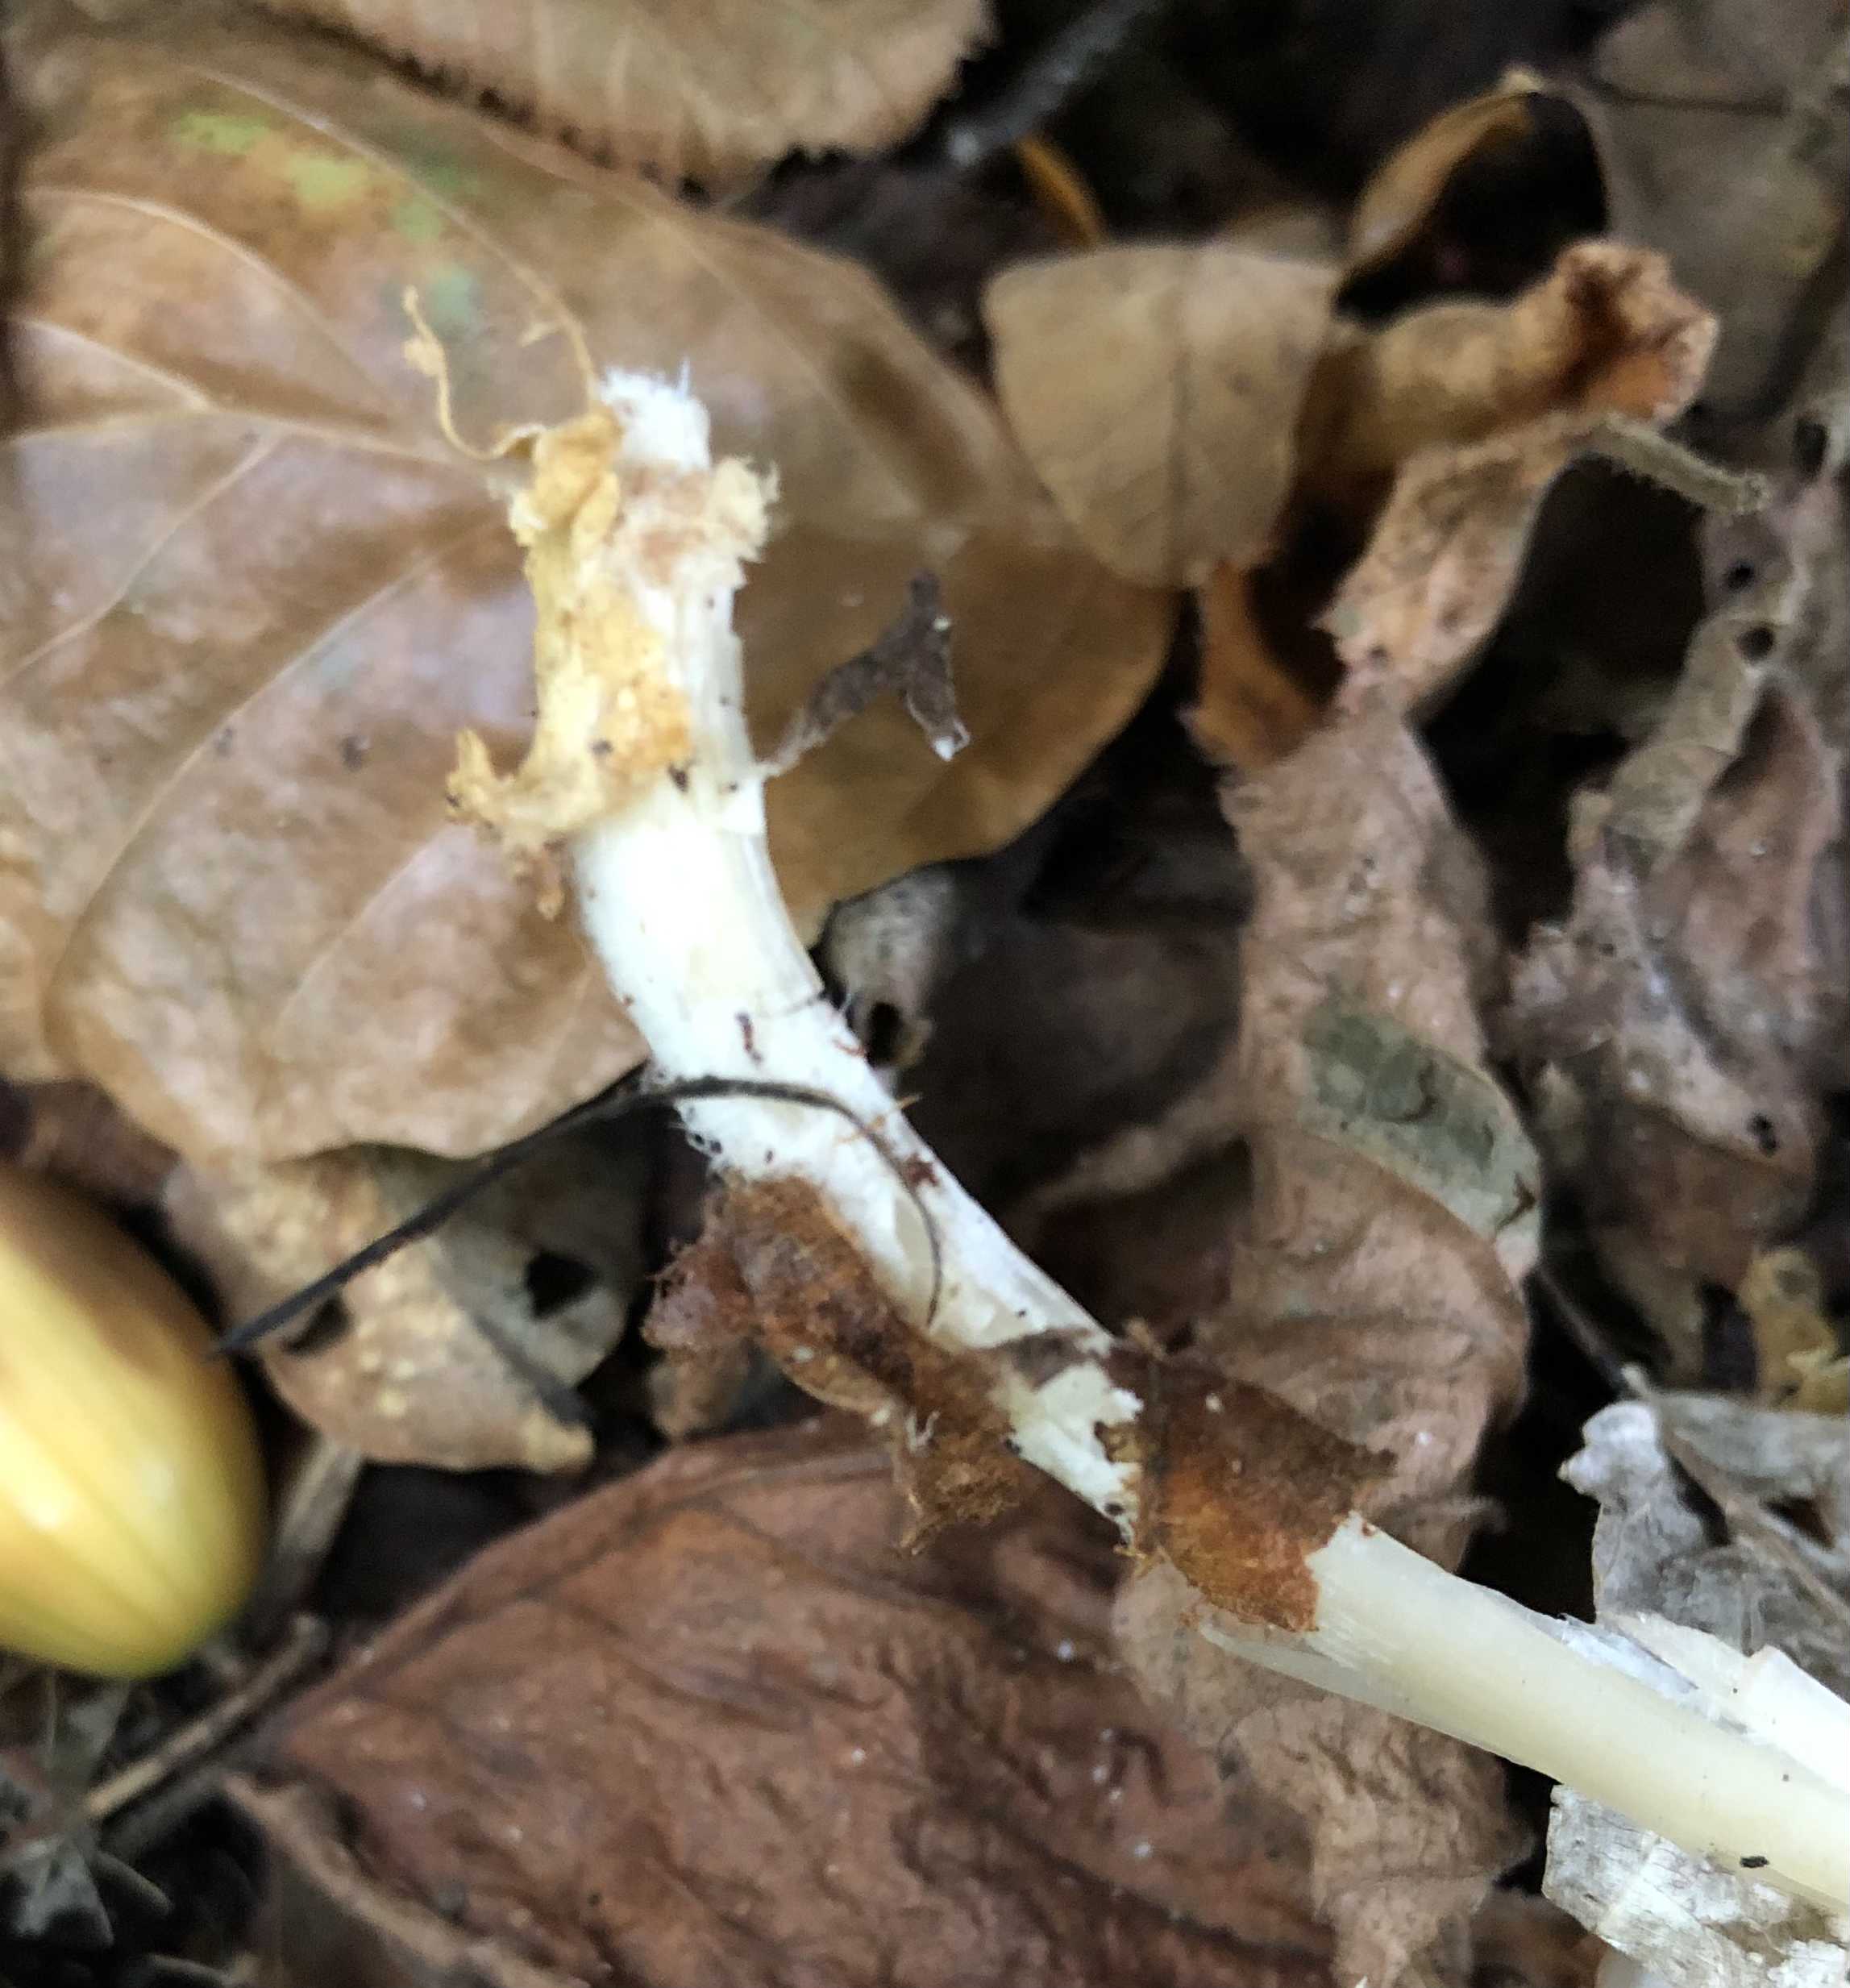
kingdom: Fungi
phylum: Basidiomycota
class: Agaricomycetes
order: Agaricales
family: Omphalotaceae
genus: Rhodocollybia
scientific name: Rhodocollybia asema
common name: horngrå fladhat
